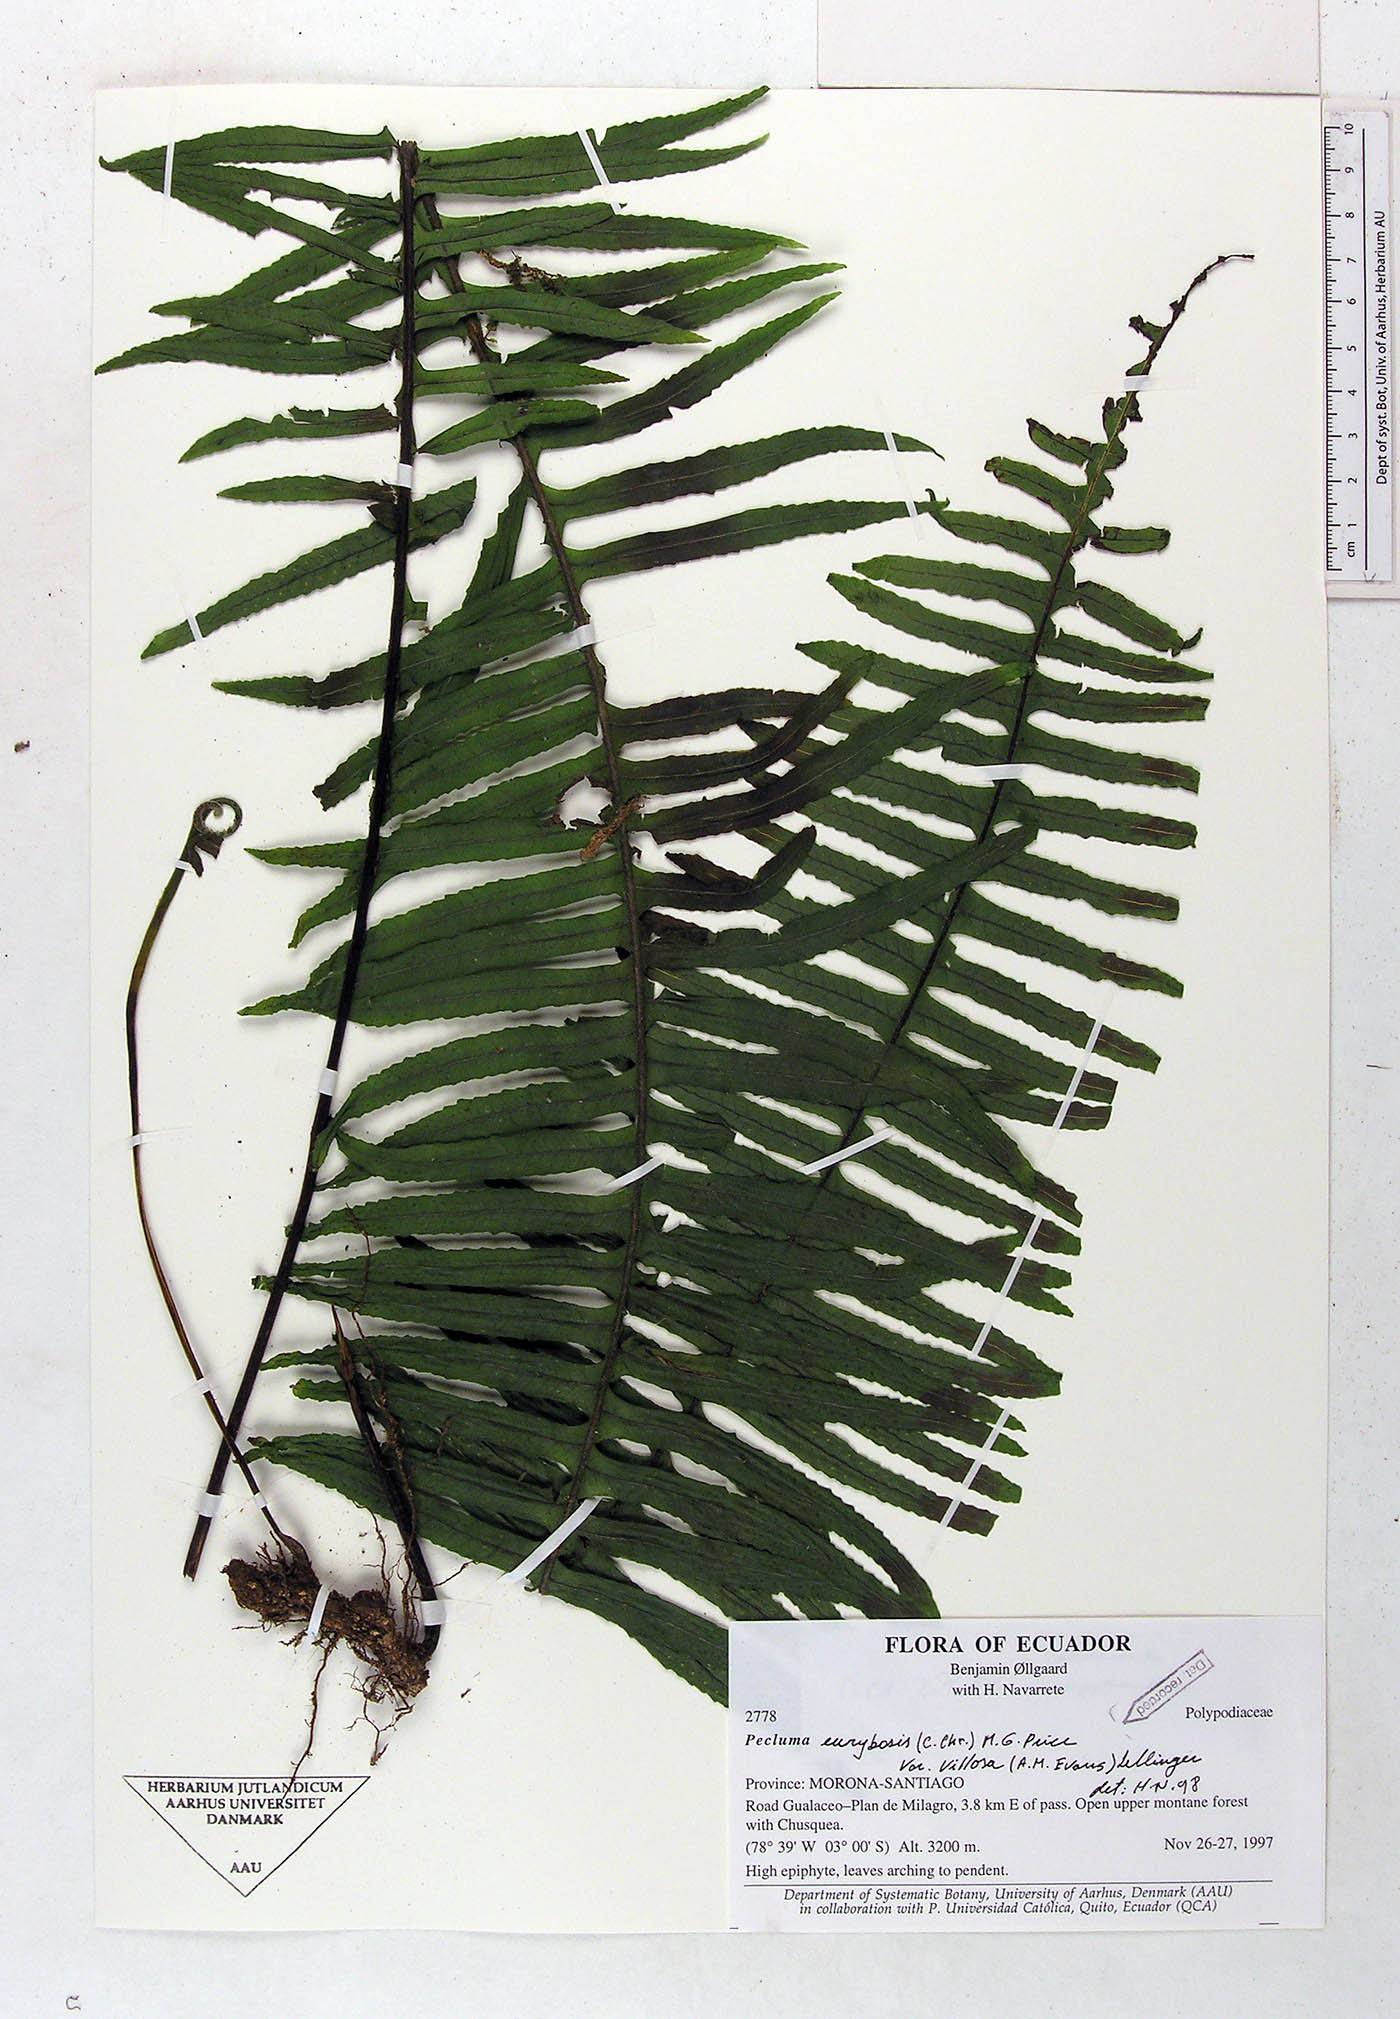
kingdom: Plantae
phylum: Tracheophyta
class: Polypodiopsida
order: Polypodiales
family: Polypodiaceae
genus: Pecluma
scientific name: Pecluma eurybasis
